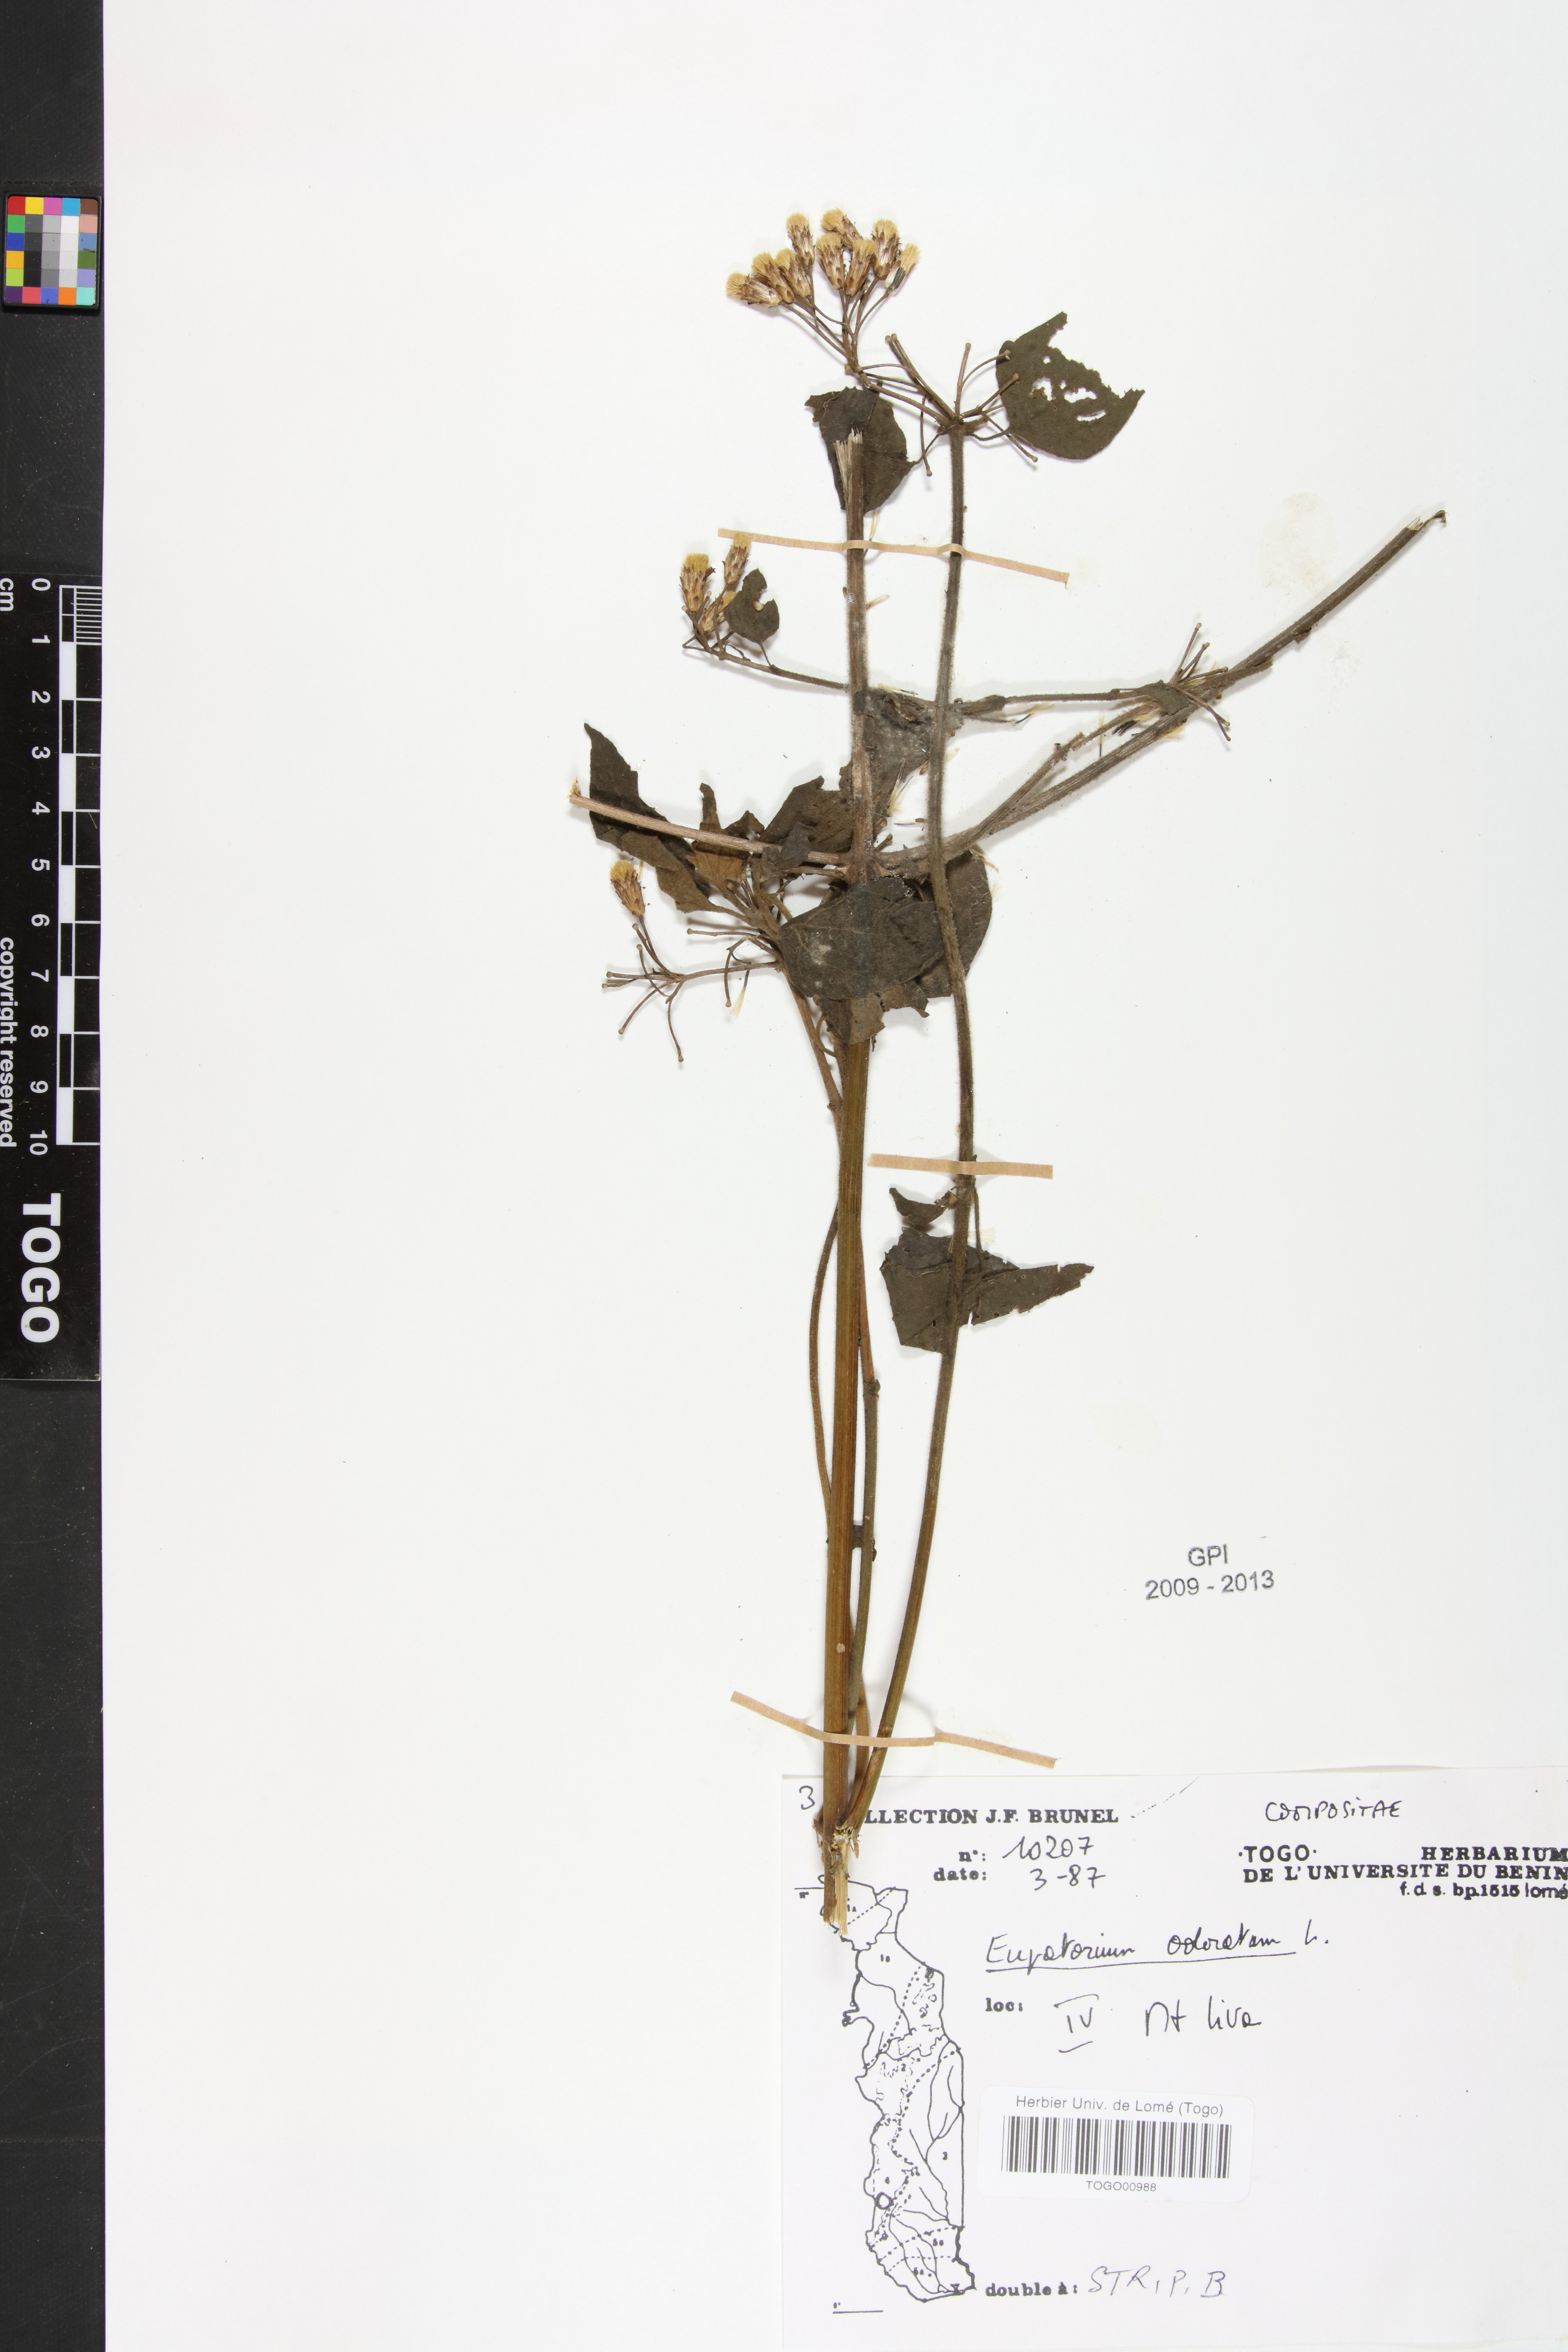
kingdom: Plantae
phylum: Tracheophyta
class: Magnoliopsida
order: Asterales
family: Asteraceae
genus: Chromolaena
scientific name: Chromolaena odorata
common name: Siamweed
